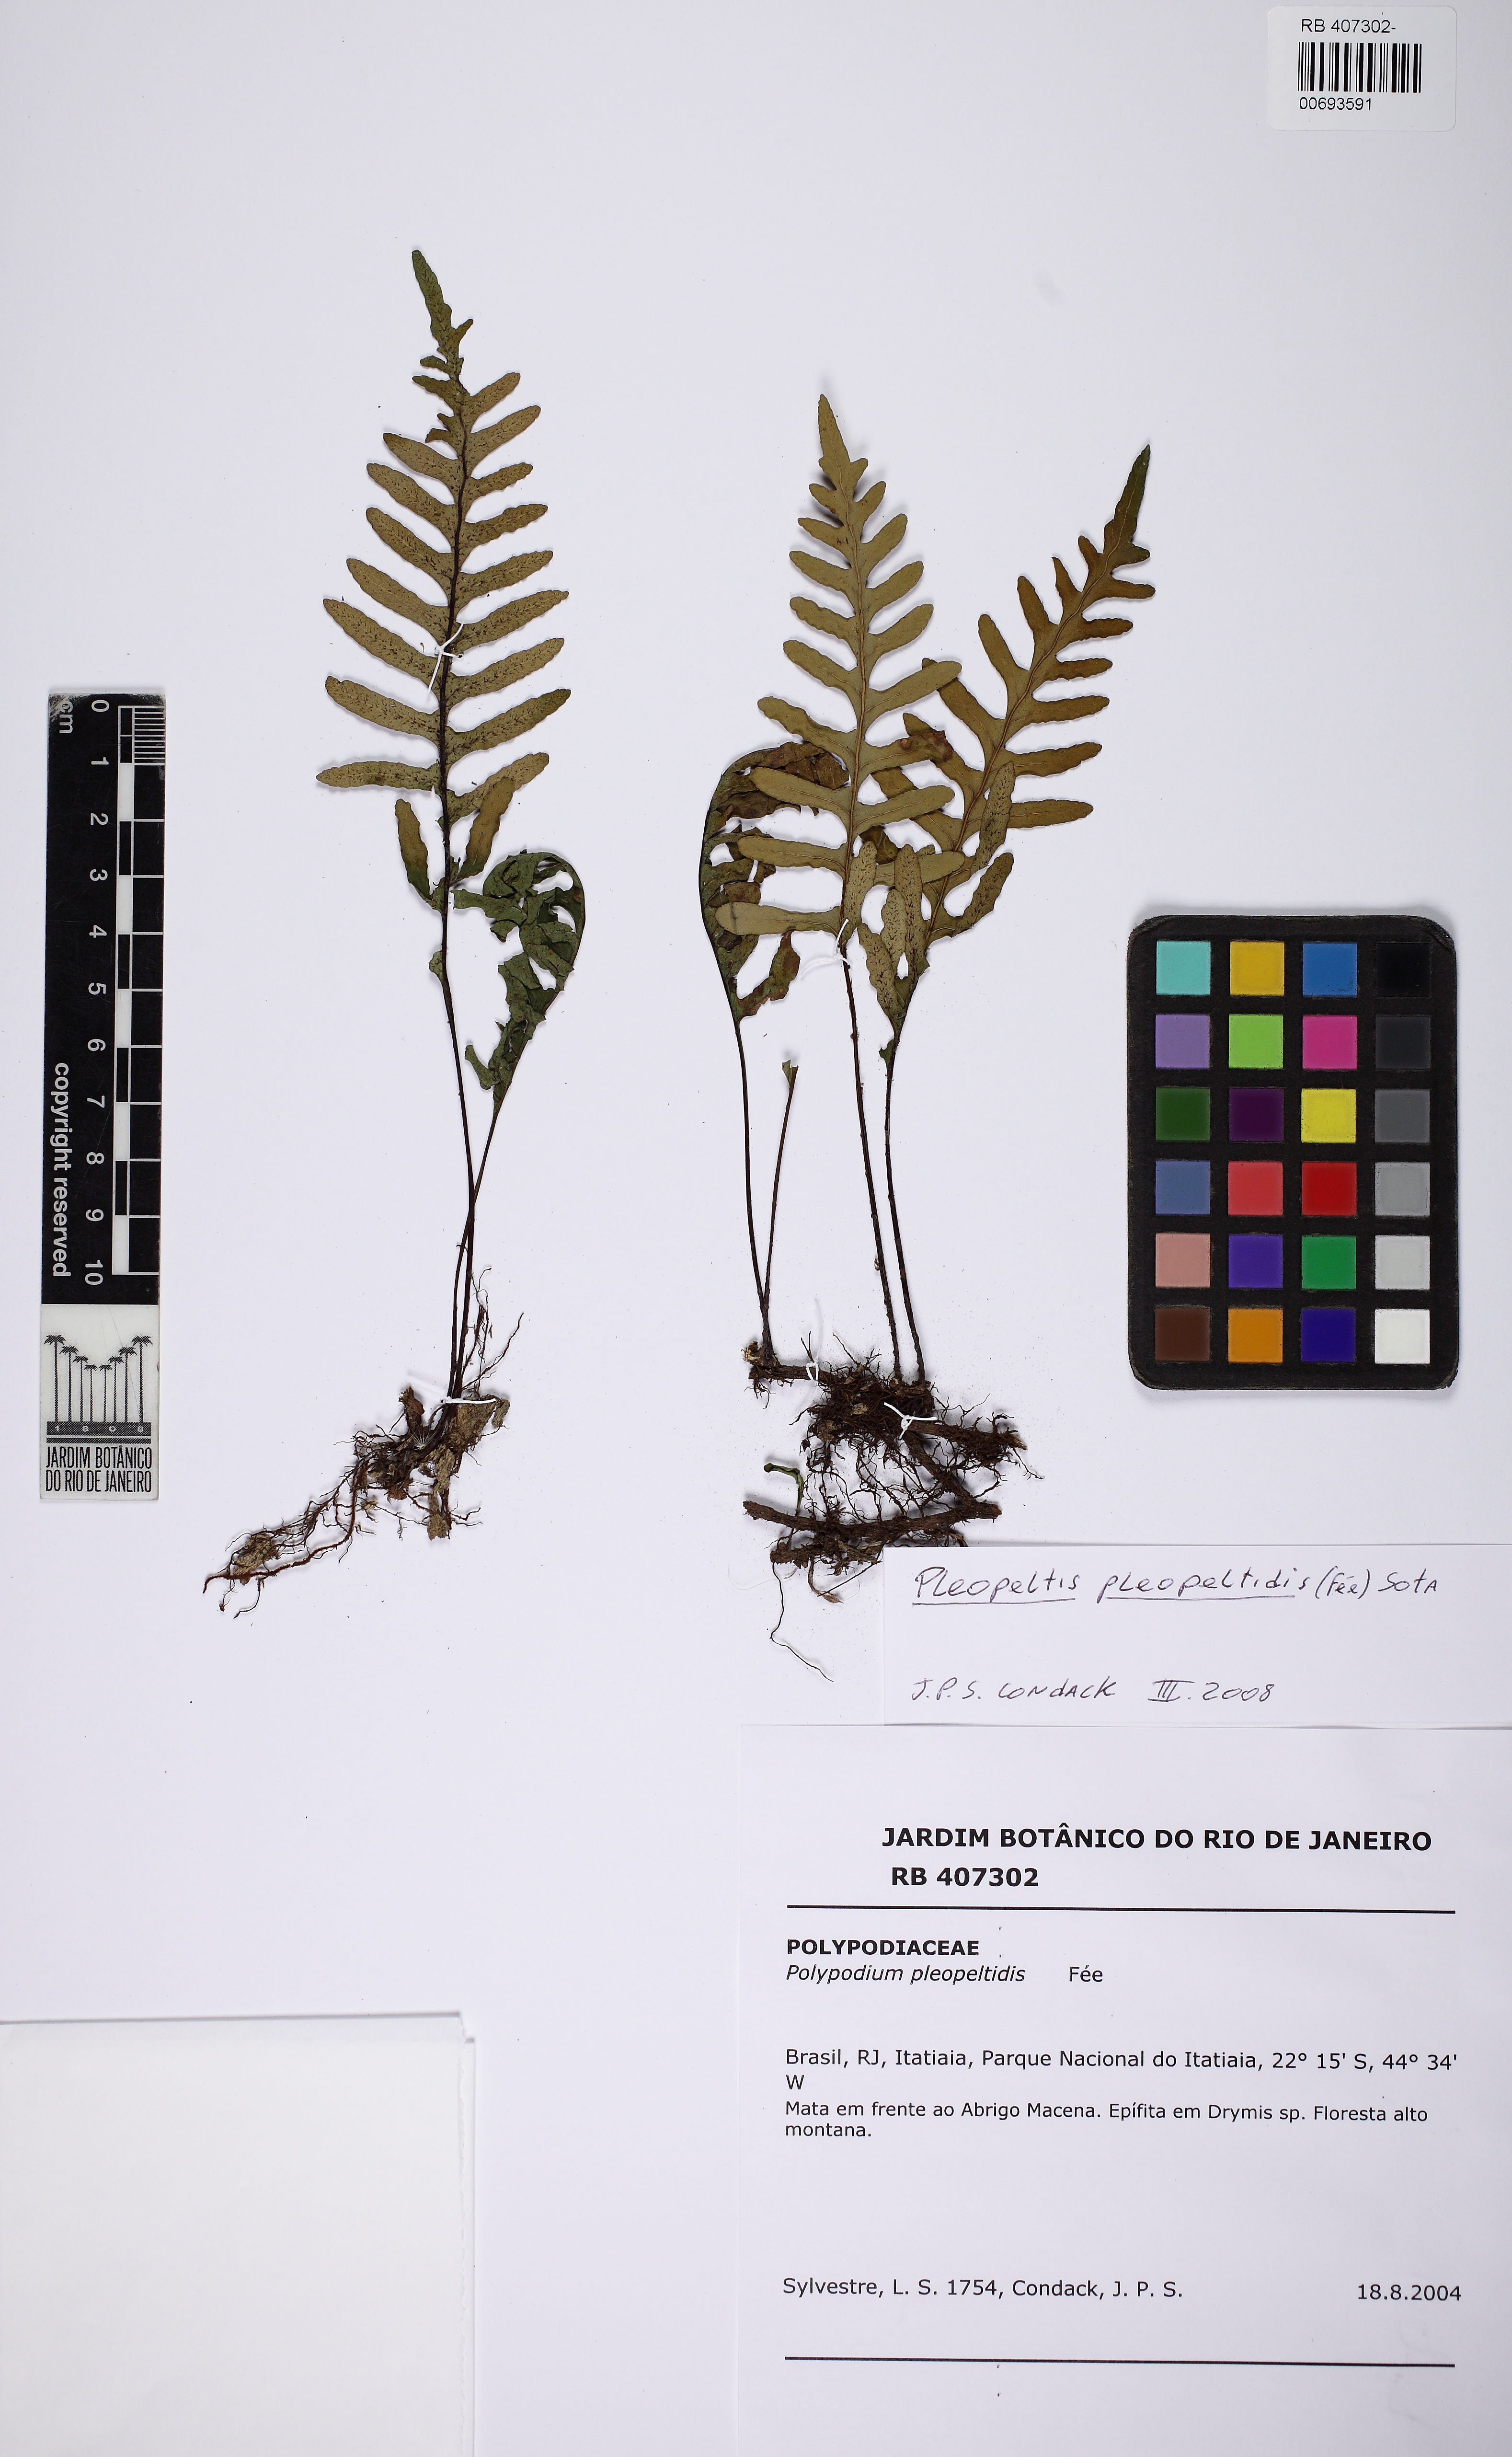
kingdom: Plantae
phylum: Tracheophyta
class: Polypodiopsida
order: Polypodiales
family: Polypodiaceae
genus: Pleopeltis
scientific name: Pleopeltis pleopeltidis
